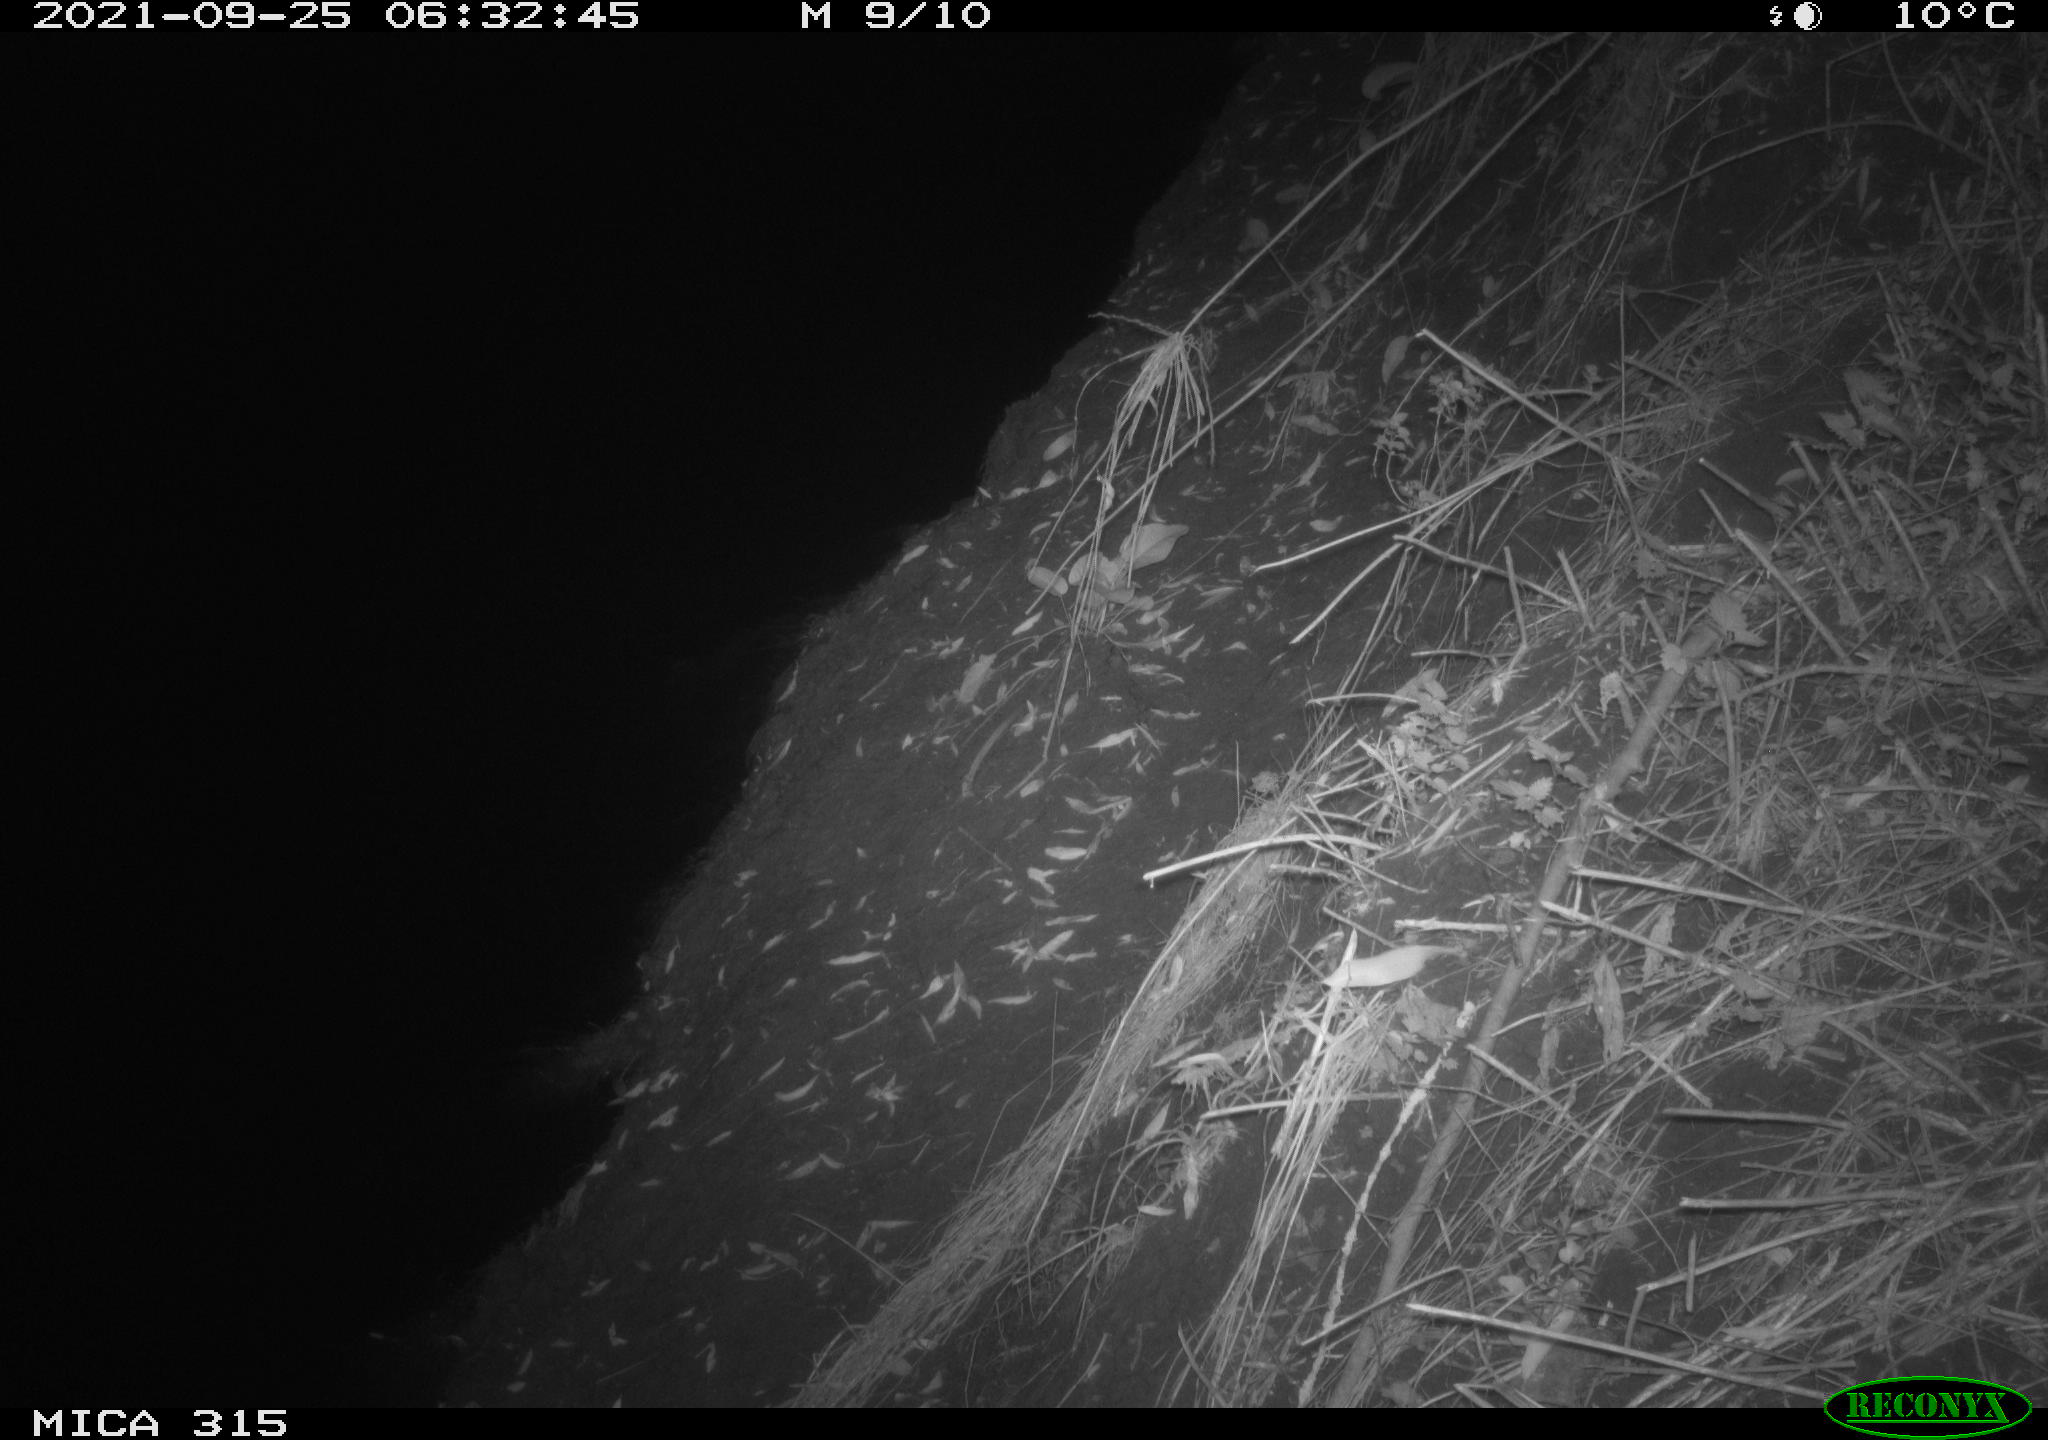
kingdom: Animalia
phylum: Chordata
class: Mammalia
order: Rodentia
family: Muridae
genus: Rattus
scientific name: Rattus norvegicus
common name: Brown rat
